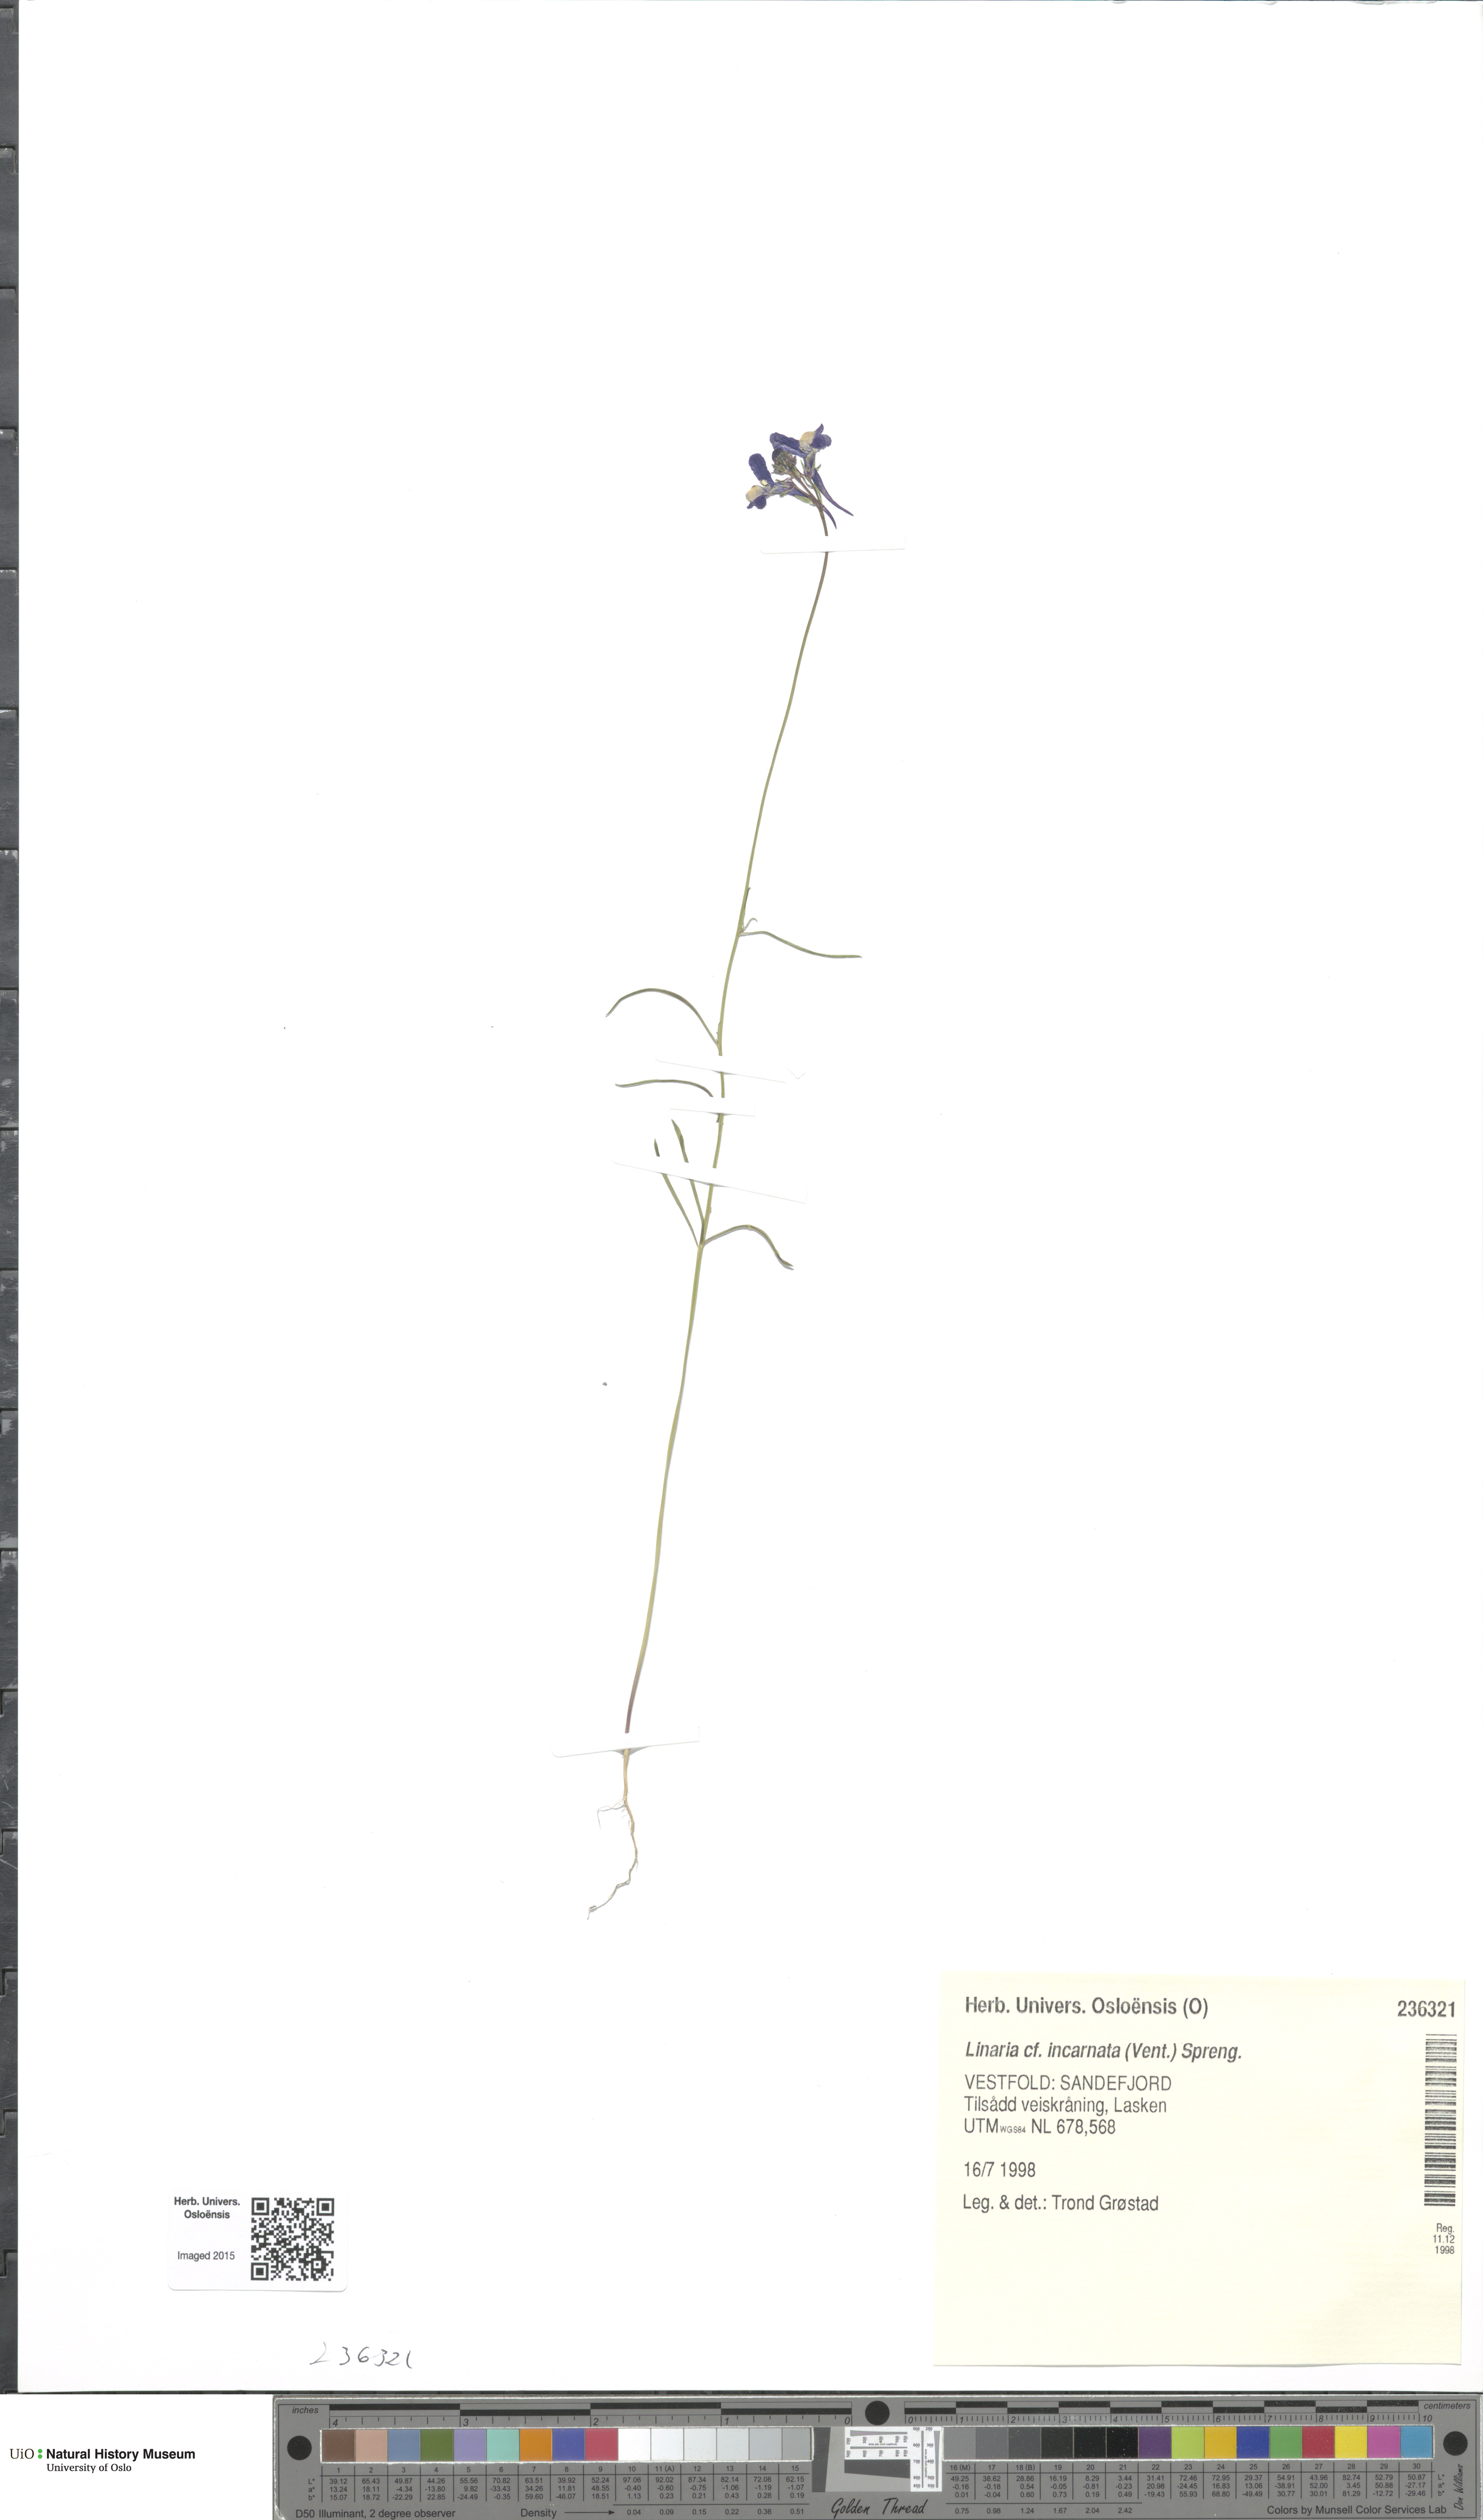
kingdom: Plantae
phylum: Tracheophyta
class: Magnoliopsida
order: Lamiales
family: Plantaginaceae
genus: Linaria
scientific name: Linaria incarnata
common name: Annual toadflax
